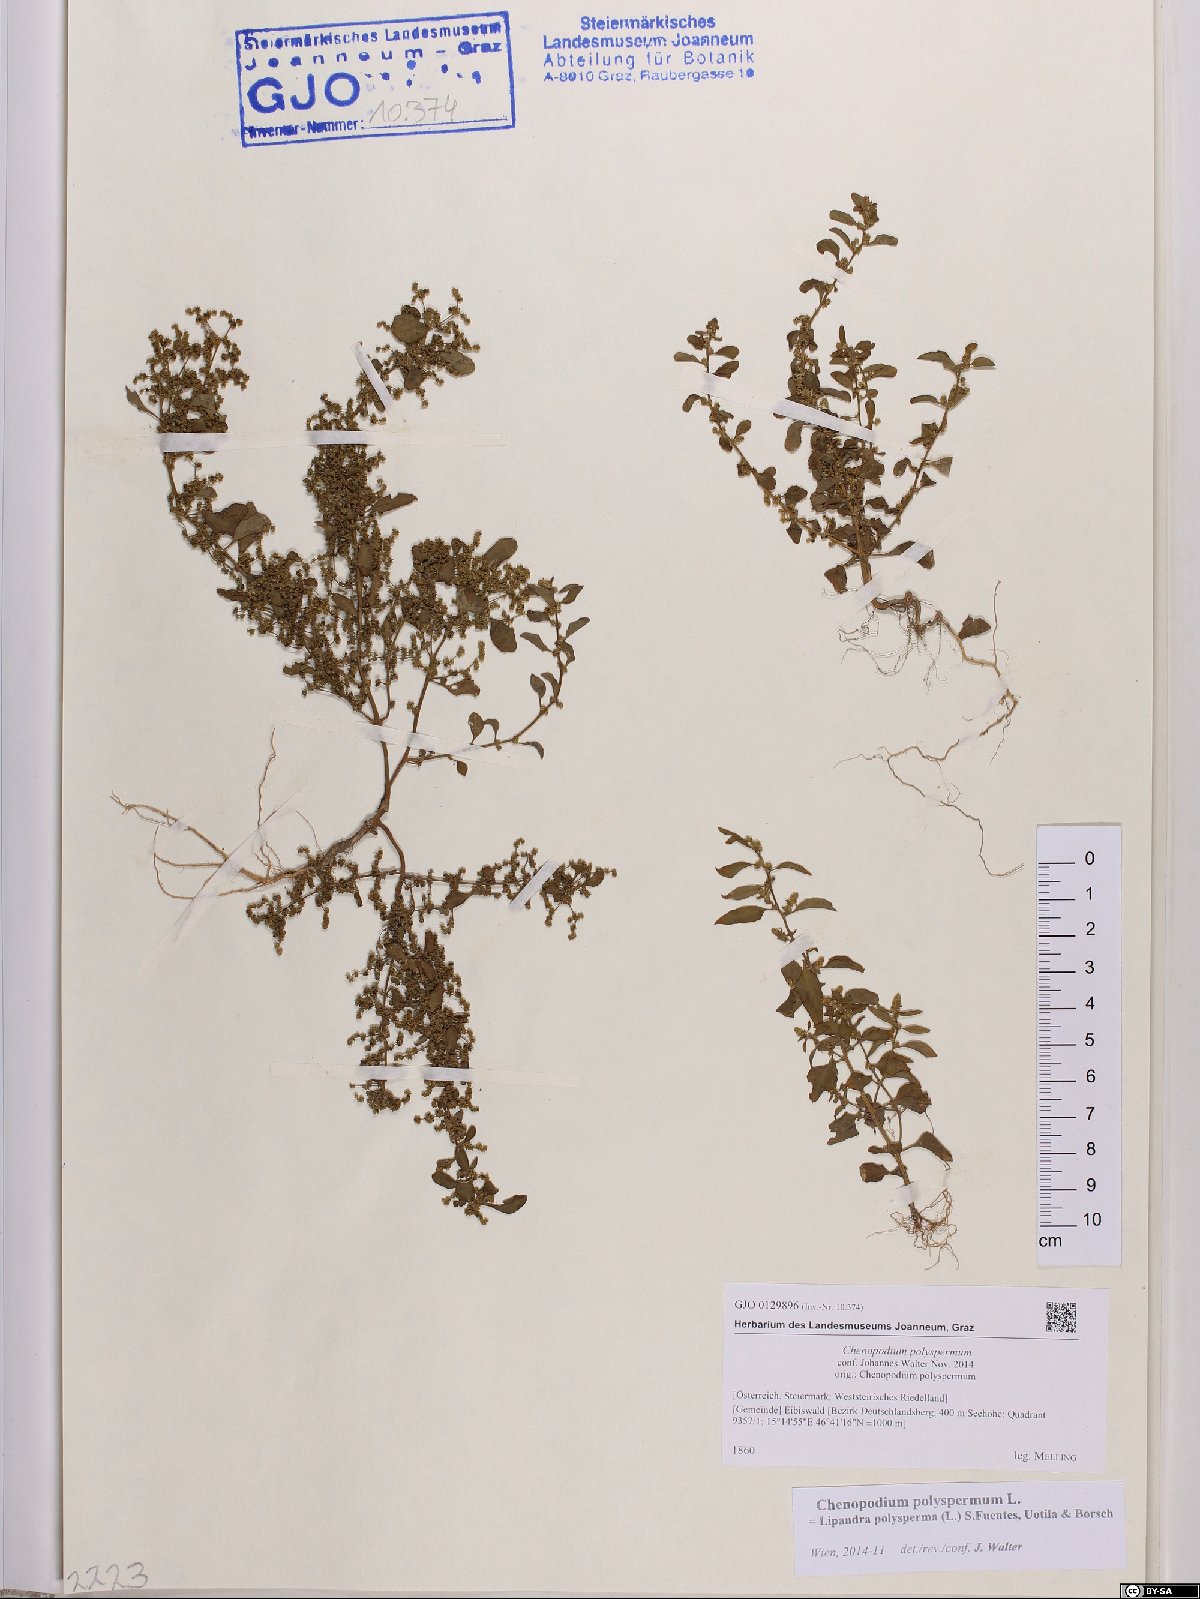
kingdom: Plantae
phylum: Tracheophyta
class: Magnoliopsida
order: Caryophyllales
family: Amaranthaceae
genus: Lipandra
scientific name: Lipandra polysperma
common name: Many-seed goosefoot
